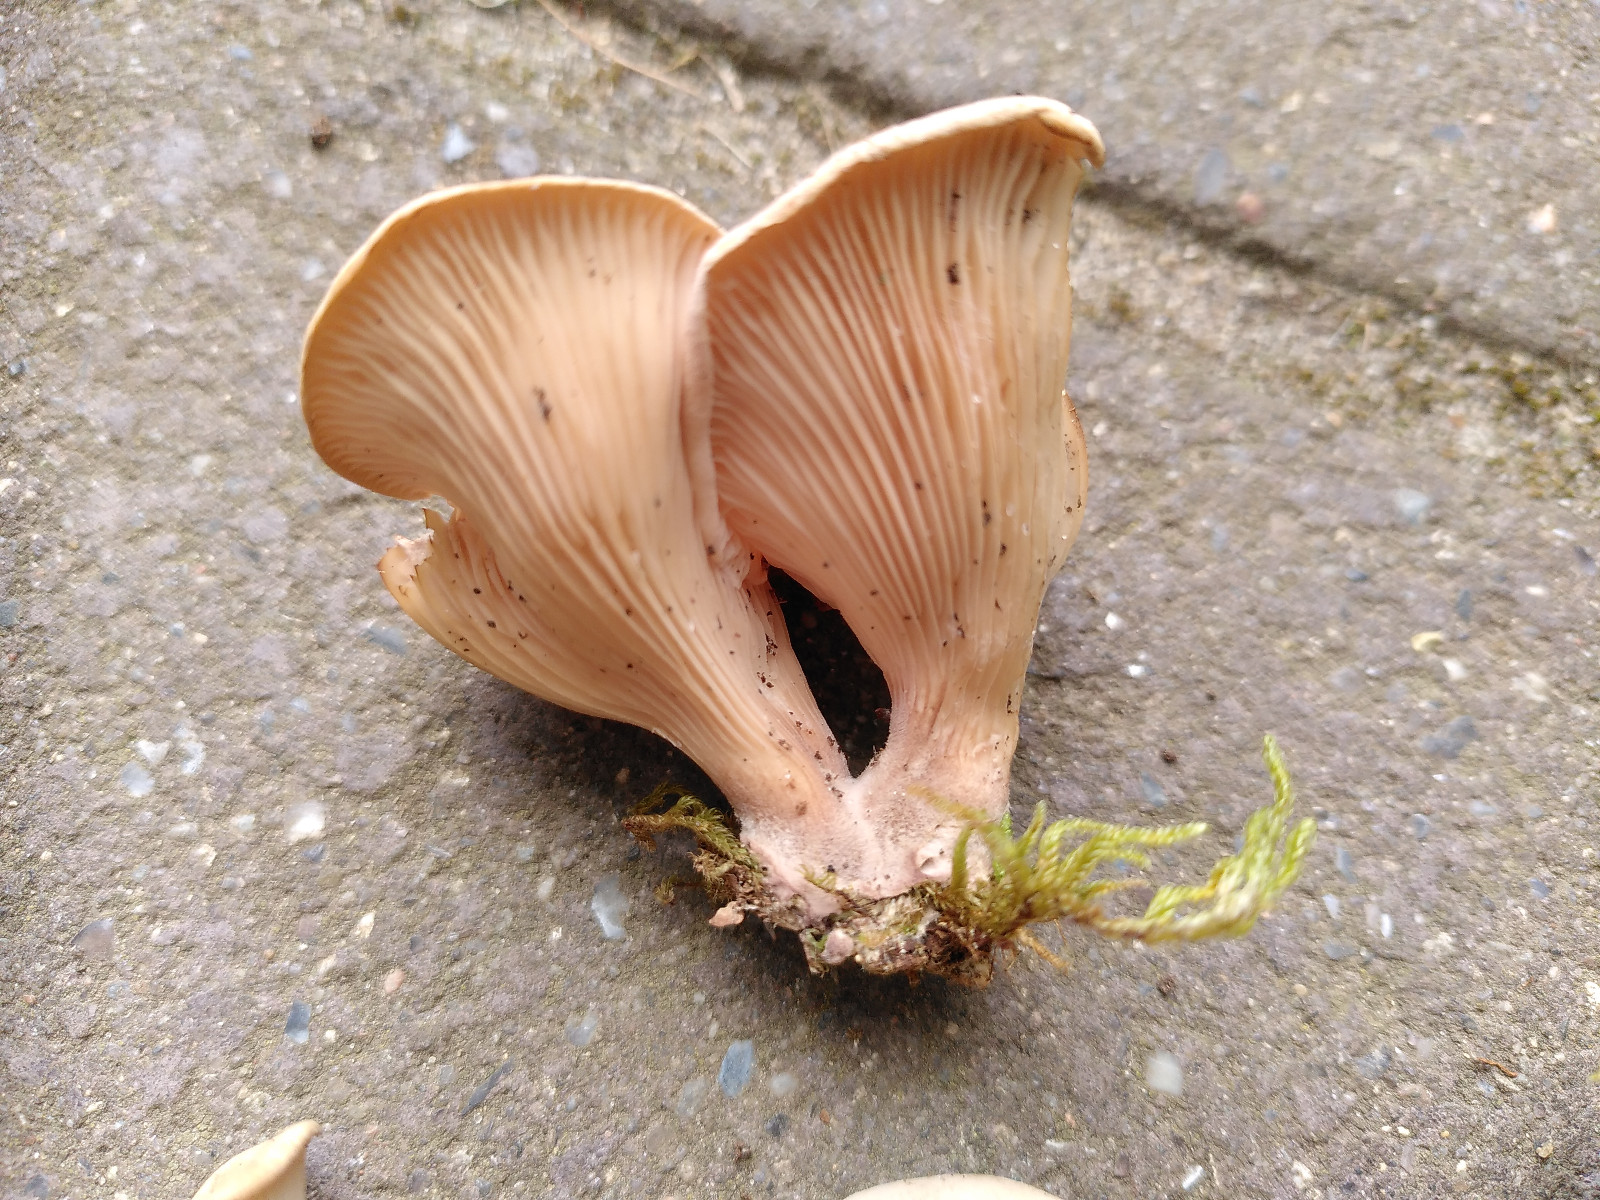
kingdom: Fungi
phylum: Basidiomycota
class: Agaricomycetes
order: Polyporales
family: Panaceae
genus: Panus
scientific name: Panus conchatus
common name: filtstokket læderhat
